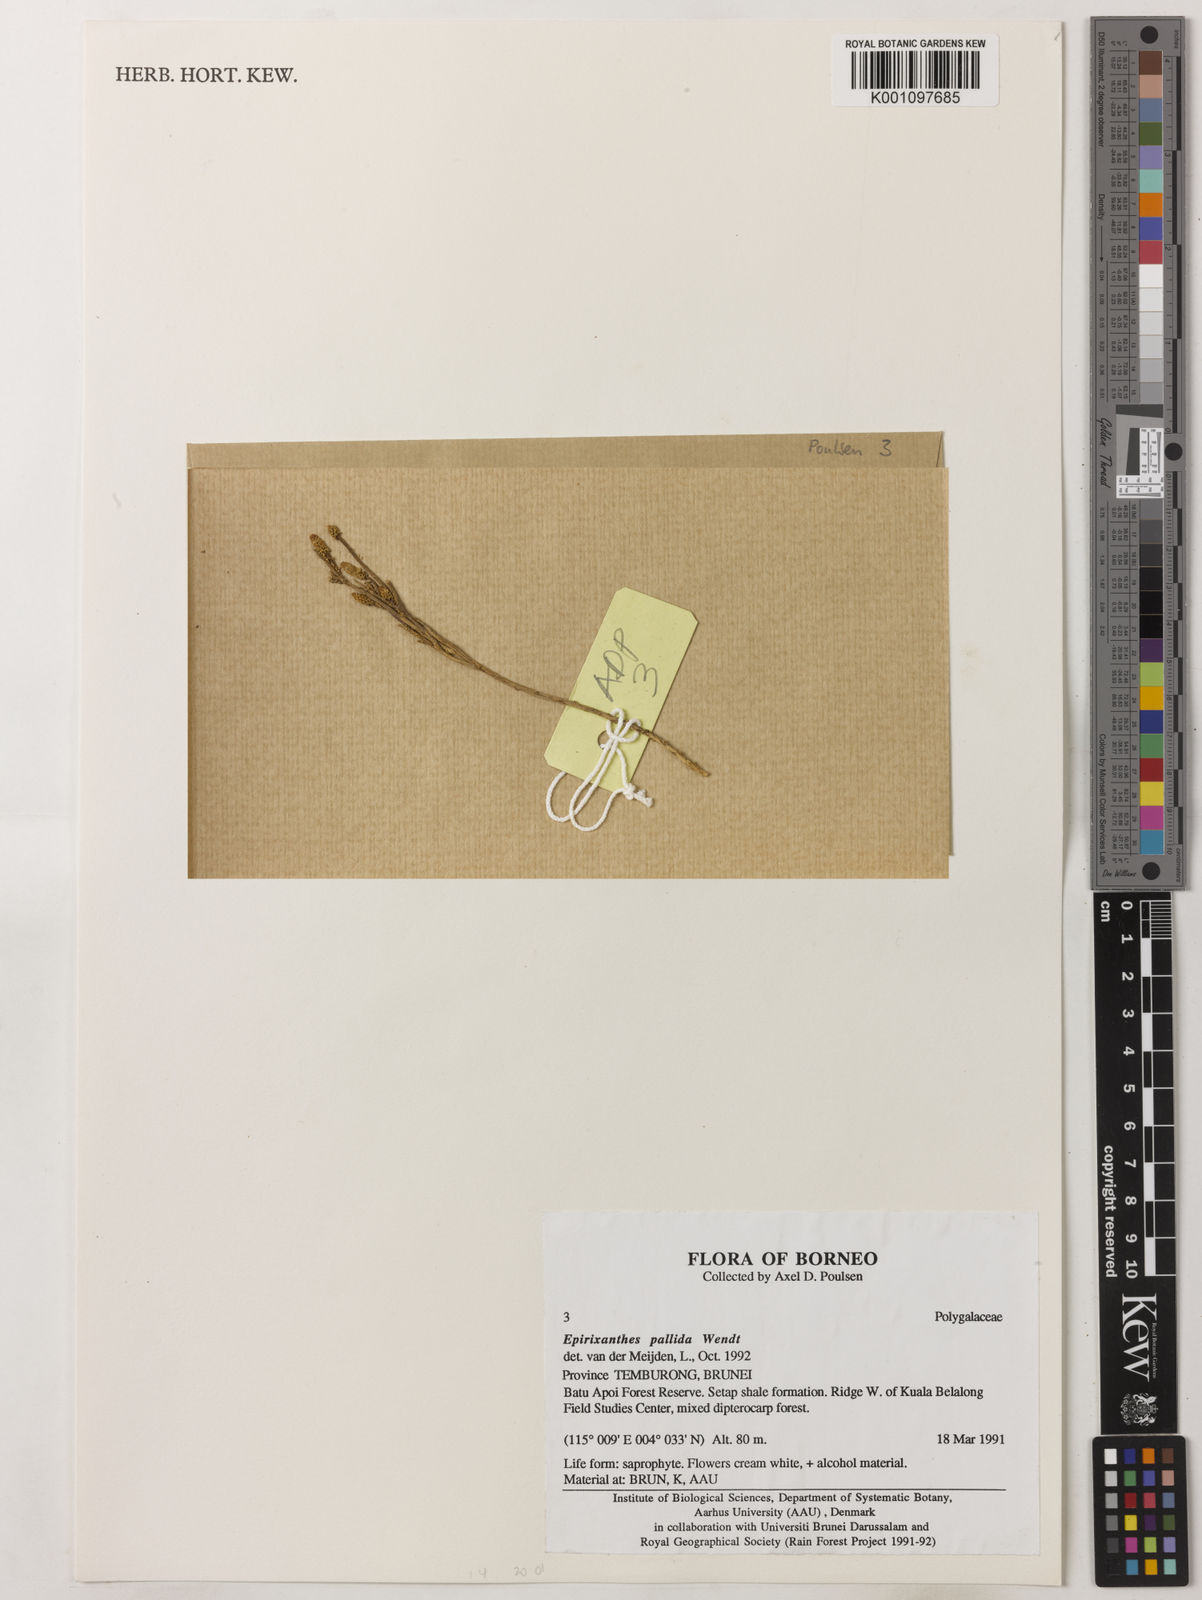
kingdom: Plantae
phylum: Tracheophyta
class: Magnoliopsida
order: Fabales
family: Polygalaceae
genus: Epirixanthes
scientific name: Epirixanthes pallida
